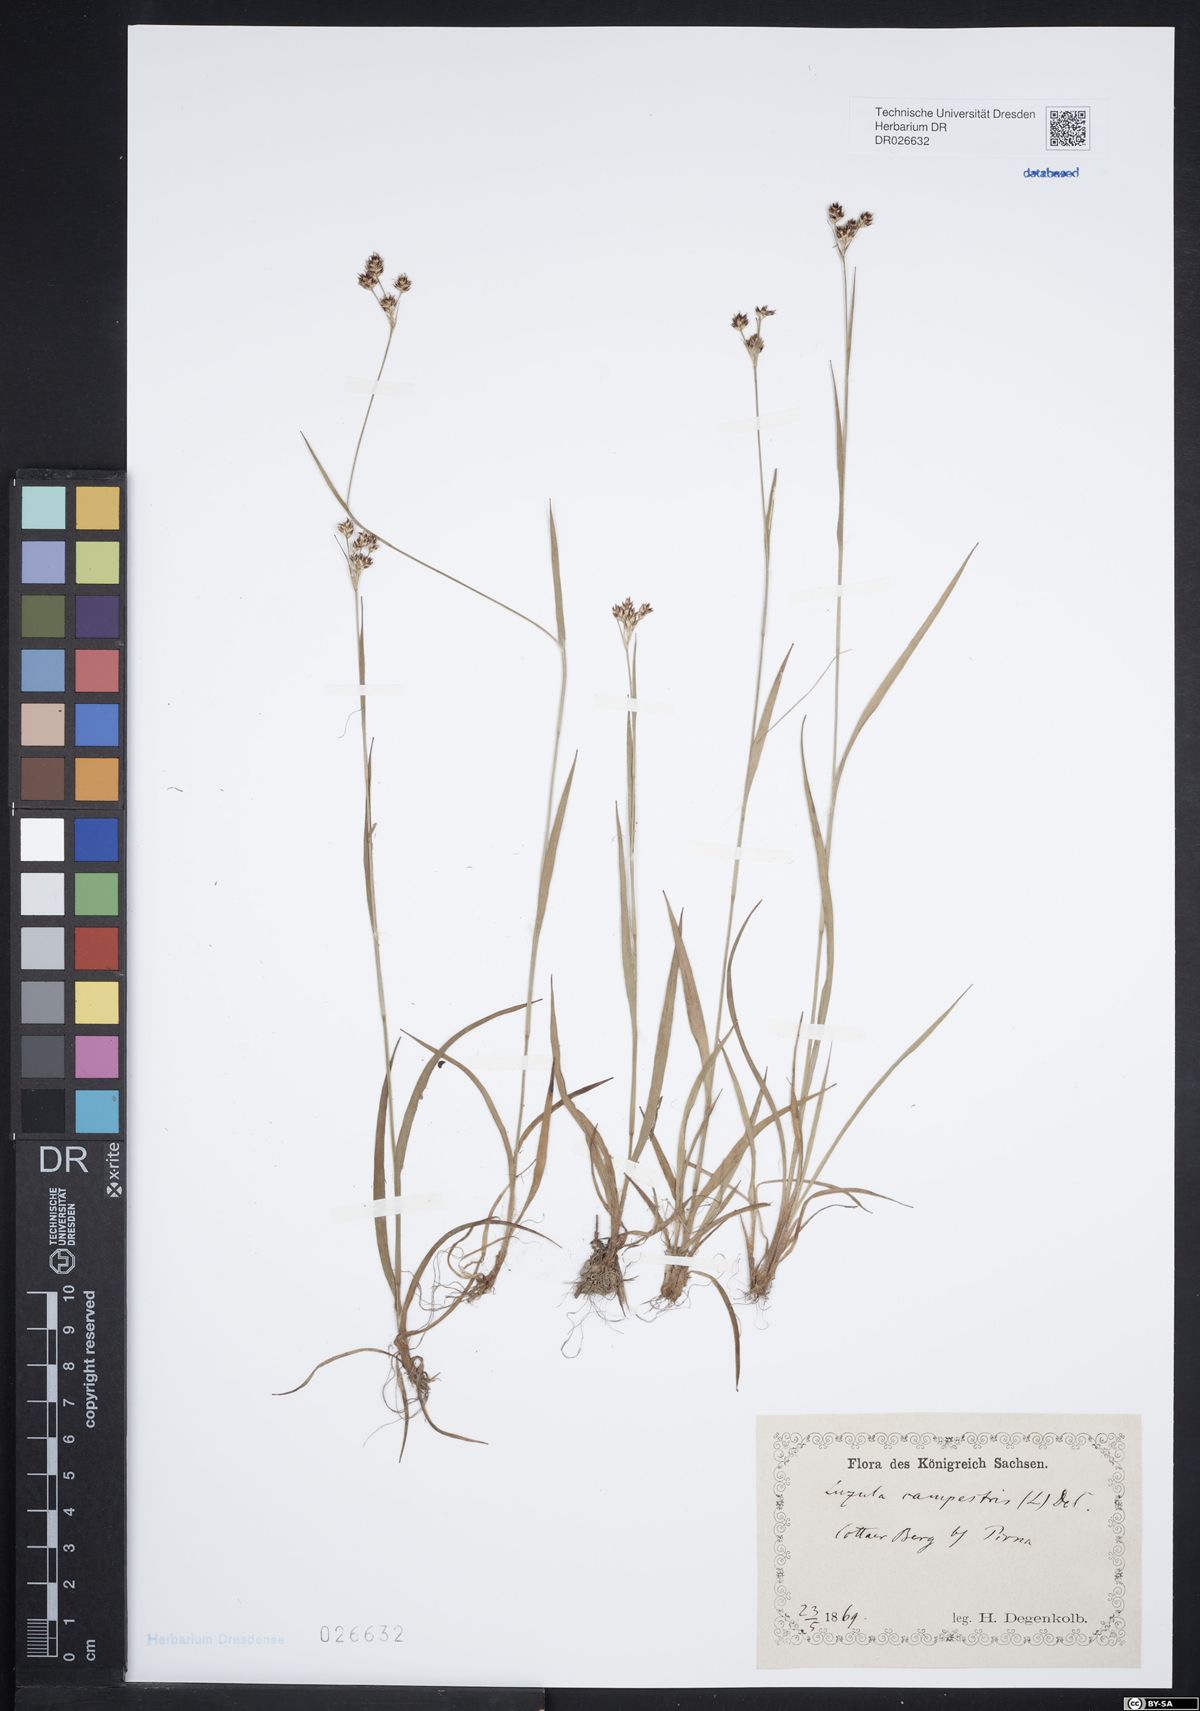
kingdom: Plantae
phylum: Tracheophyta
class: Liliopsida
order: Poales
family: Juncaceae
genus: Luzula
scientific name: Luzula campestris
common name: Field wood-rush
